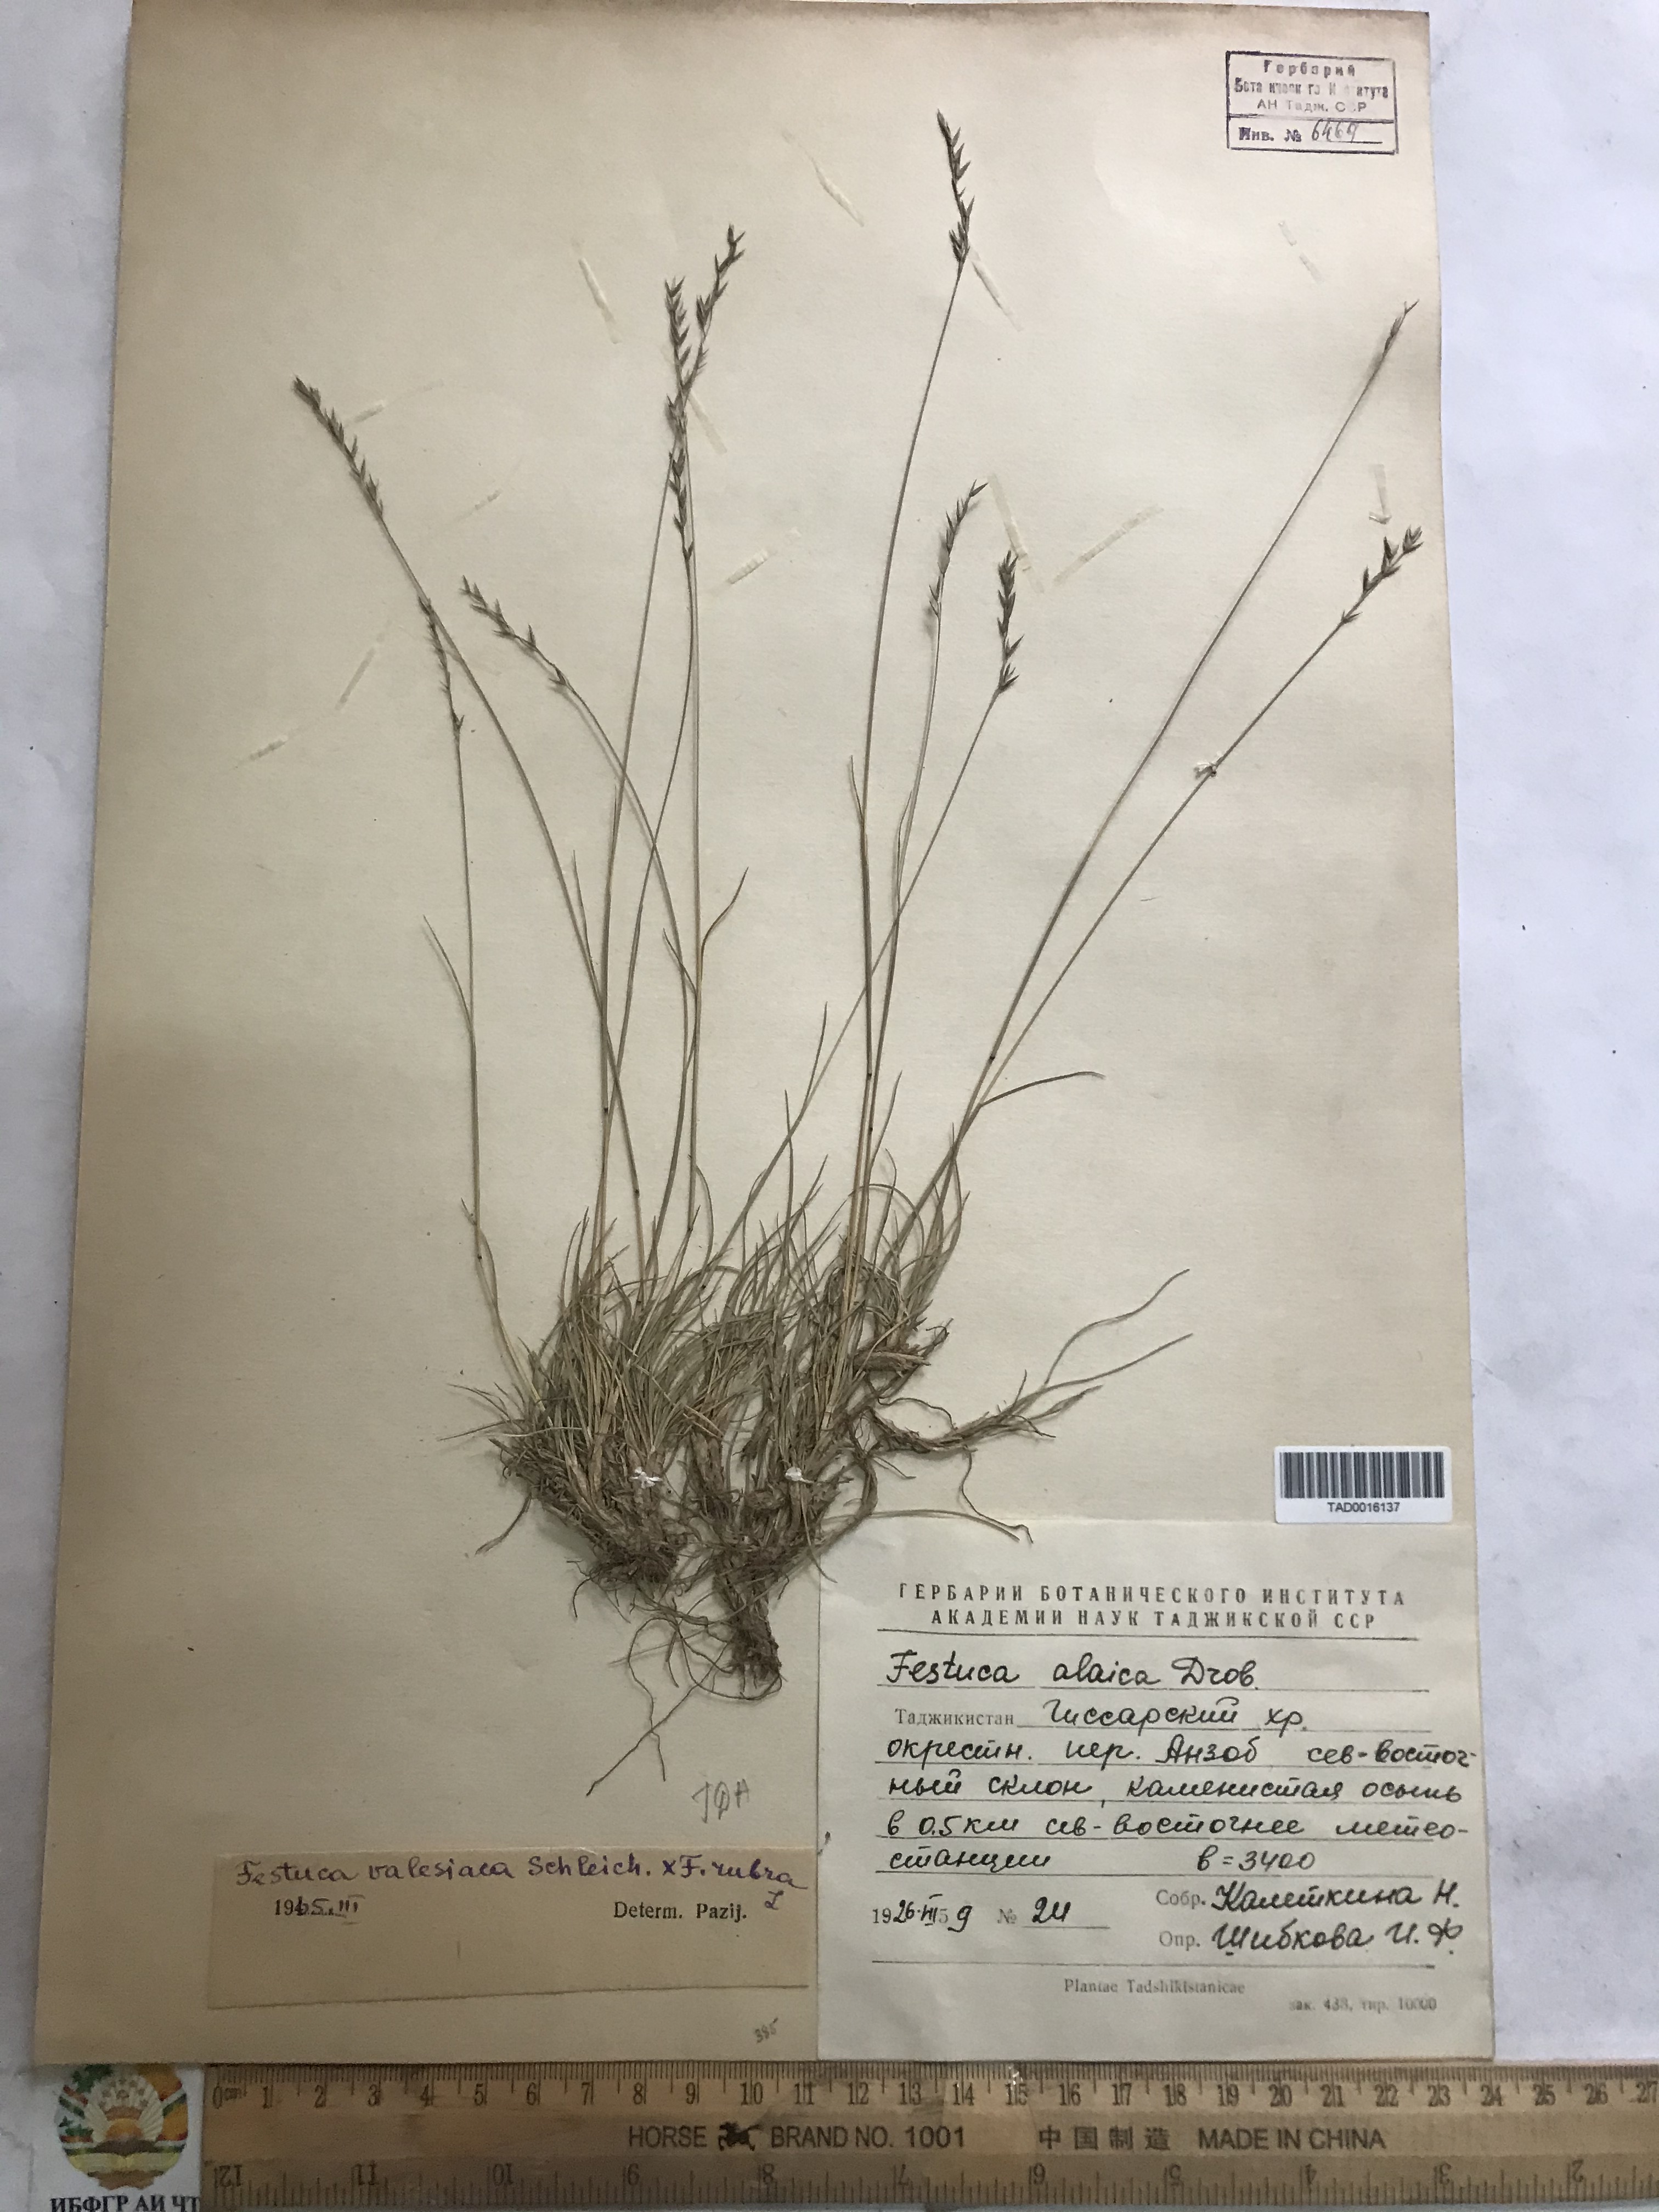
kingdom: Plantae
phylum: Tracheophyta
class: Liliopsida
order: Poales
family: Poaceae
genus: Festuca
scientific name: Festuca valesiaca
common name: Volga fescue
